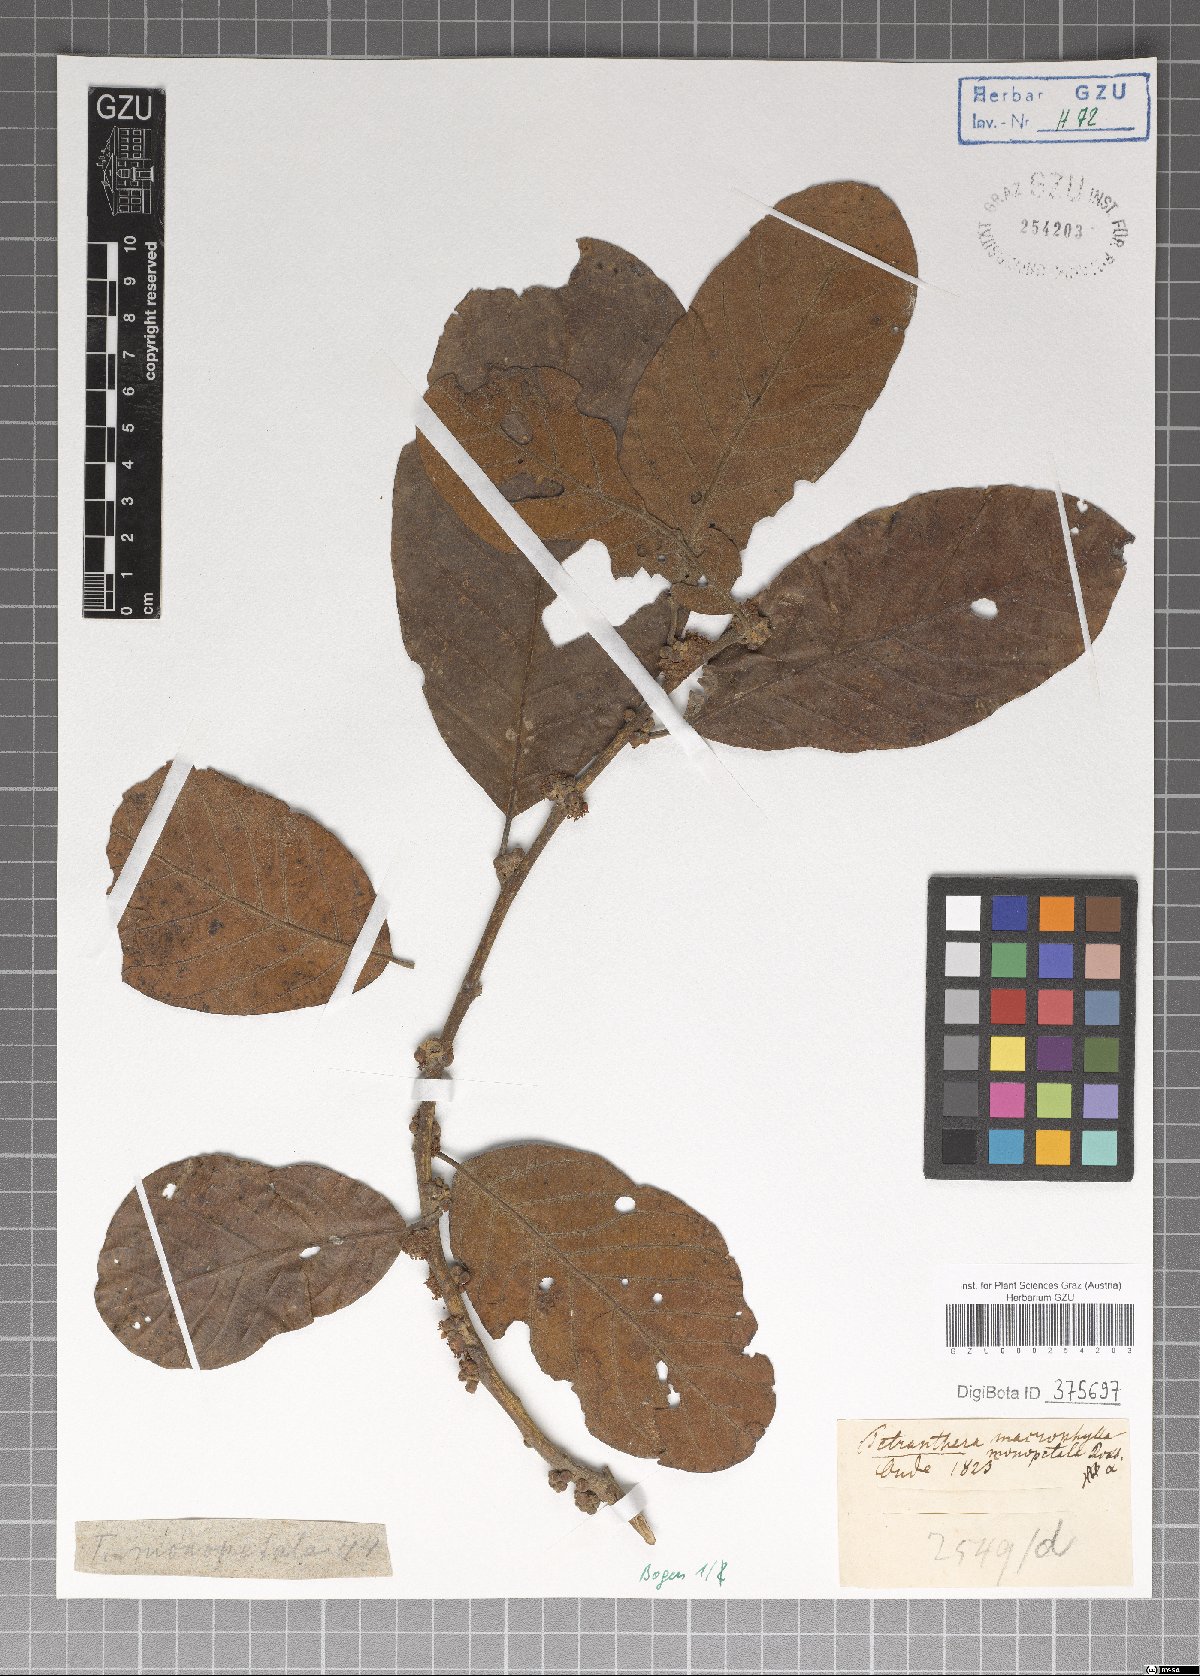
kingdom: Plantae
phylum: Tracheophyta
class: Magnoliopsida
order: Laurales
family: Lauraceae
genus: Litsea
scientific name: Litsea monopetala
